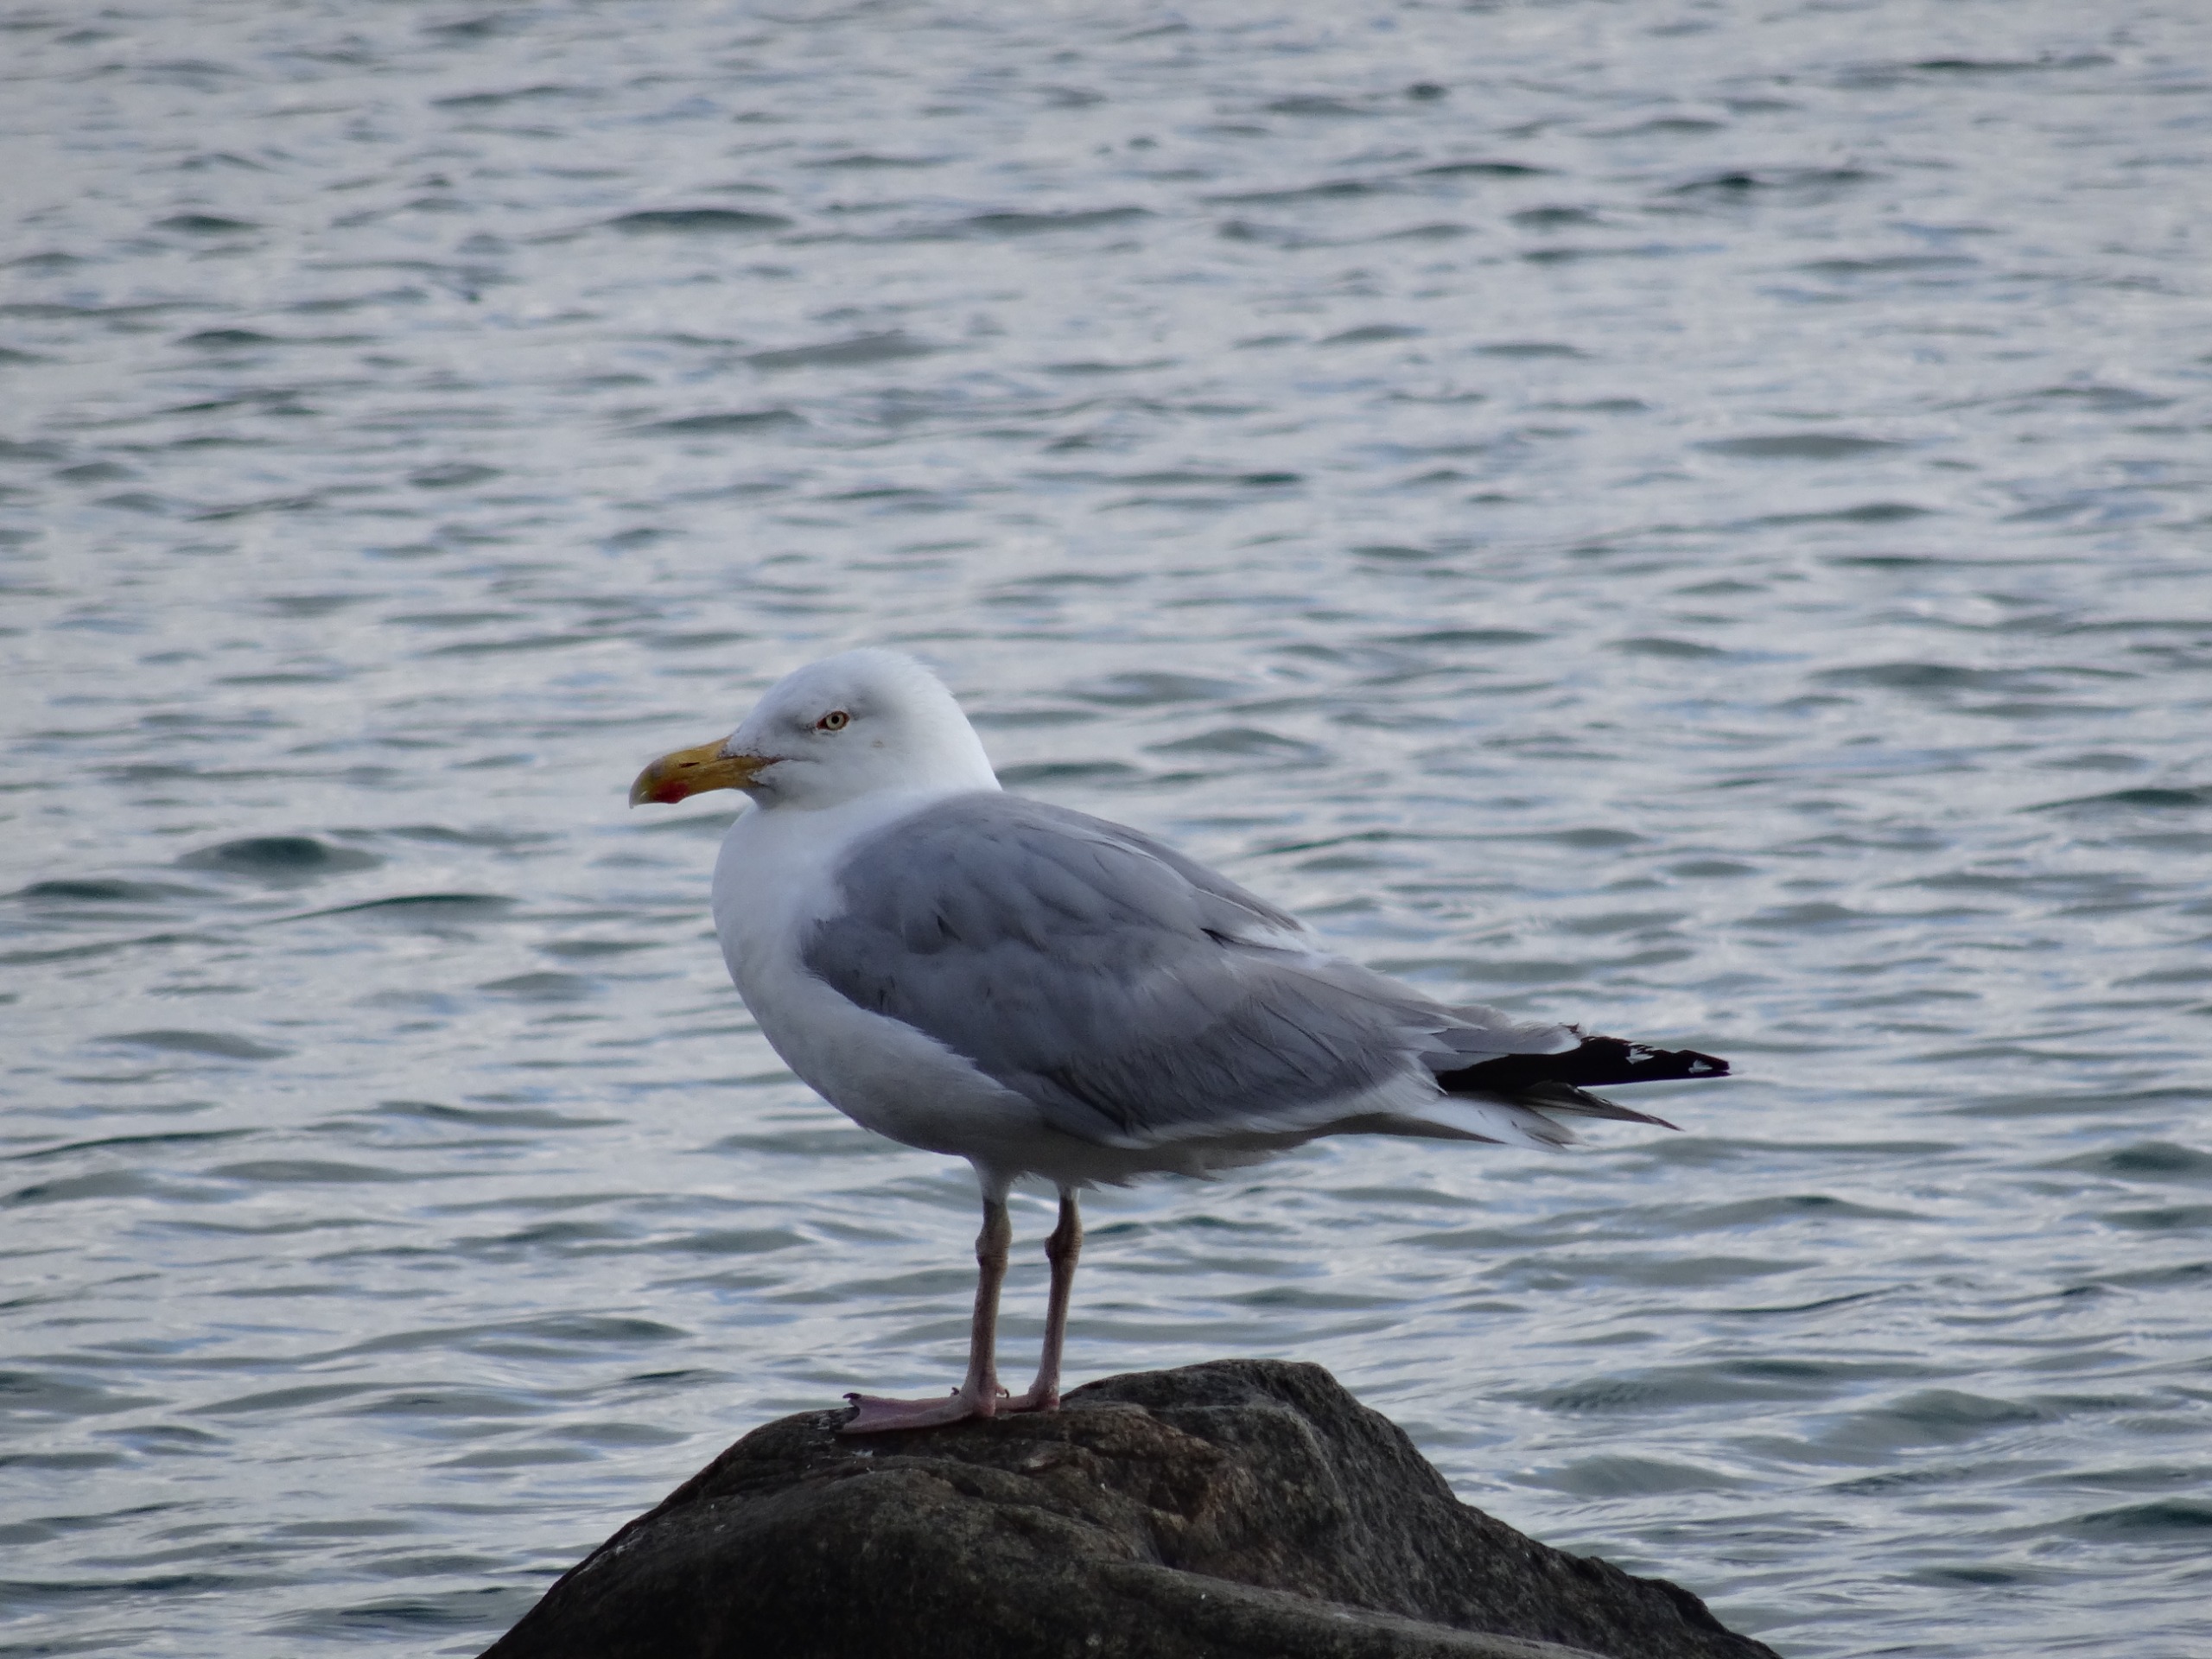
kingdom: Animalia
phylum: Chordata
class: Aves
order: Charadriiformes
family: Laridae
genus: Larus
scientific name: Larus argentatus
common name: Sølvmåge
